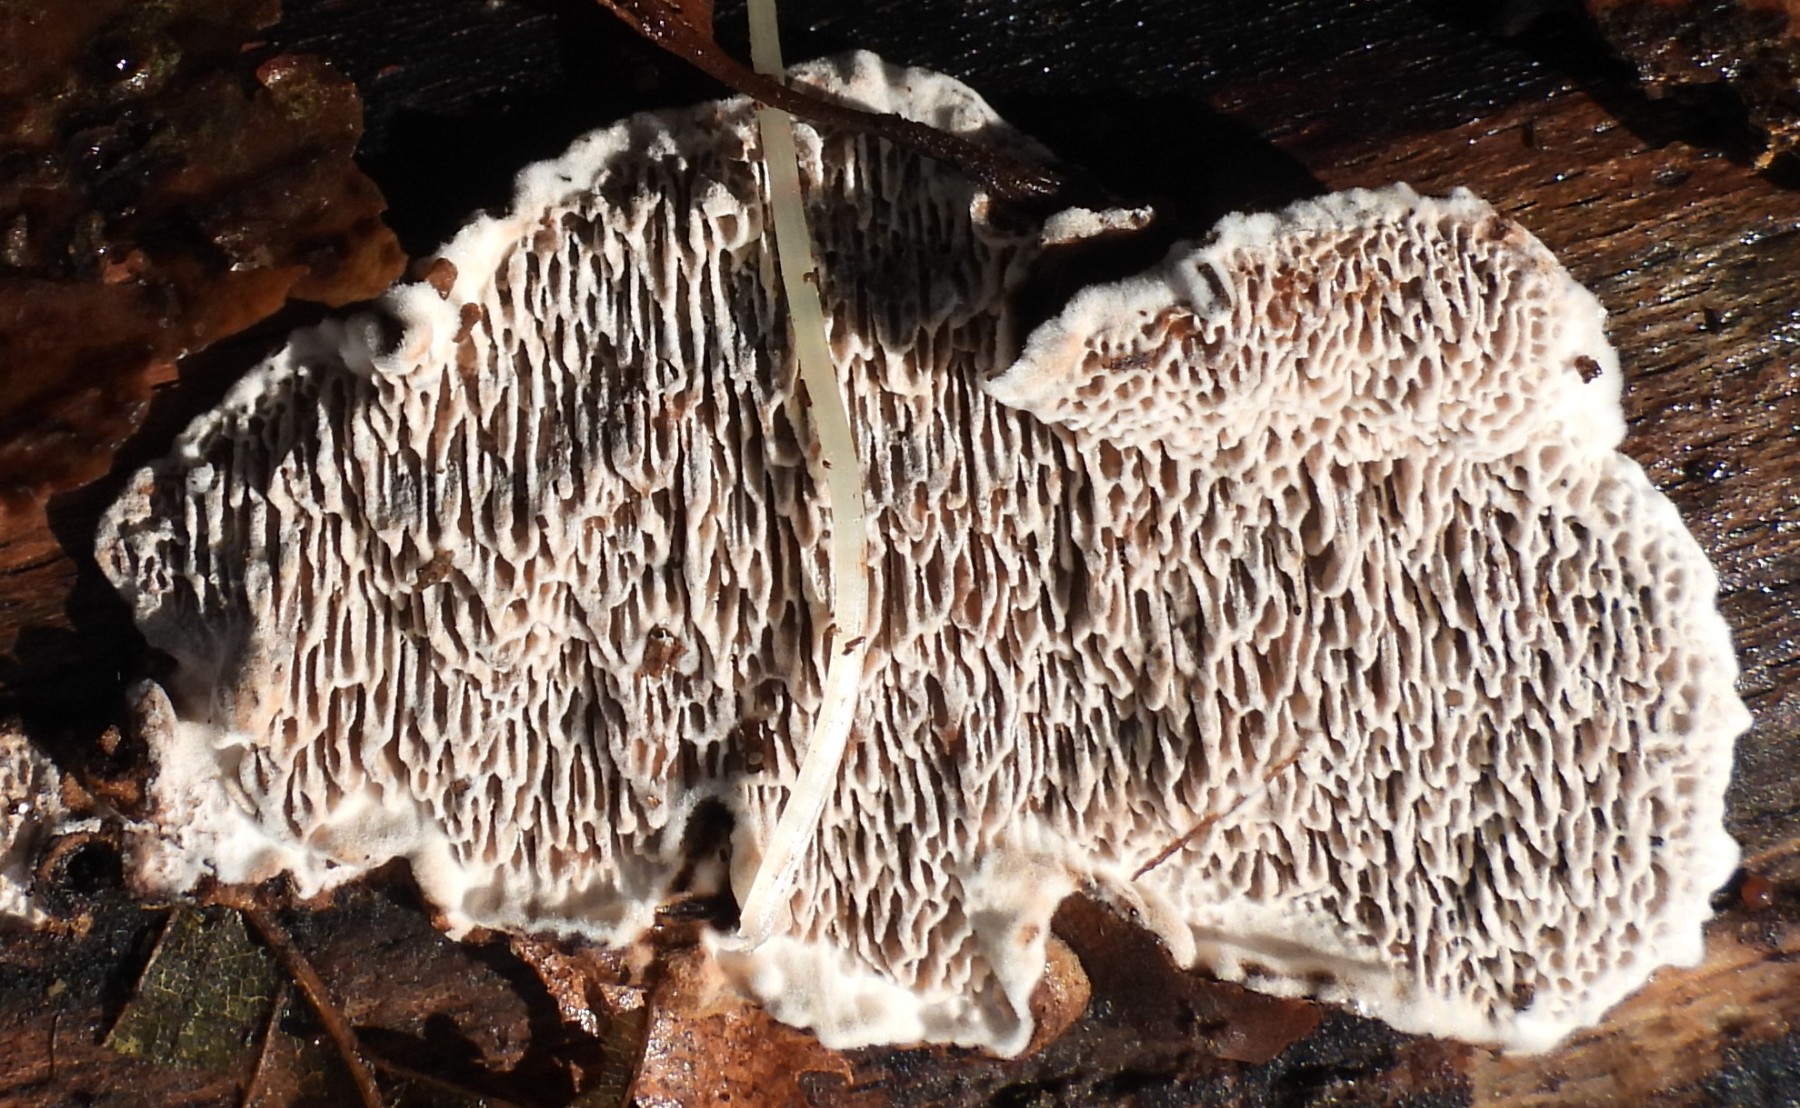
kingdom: Fungi
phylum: Basidiomycota
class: Agaricomycetes
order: Polyporales
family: Polyporaceae
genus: Podofomes
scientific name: Podofomes mollis
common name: blød begporesvamp
